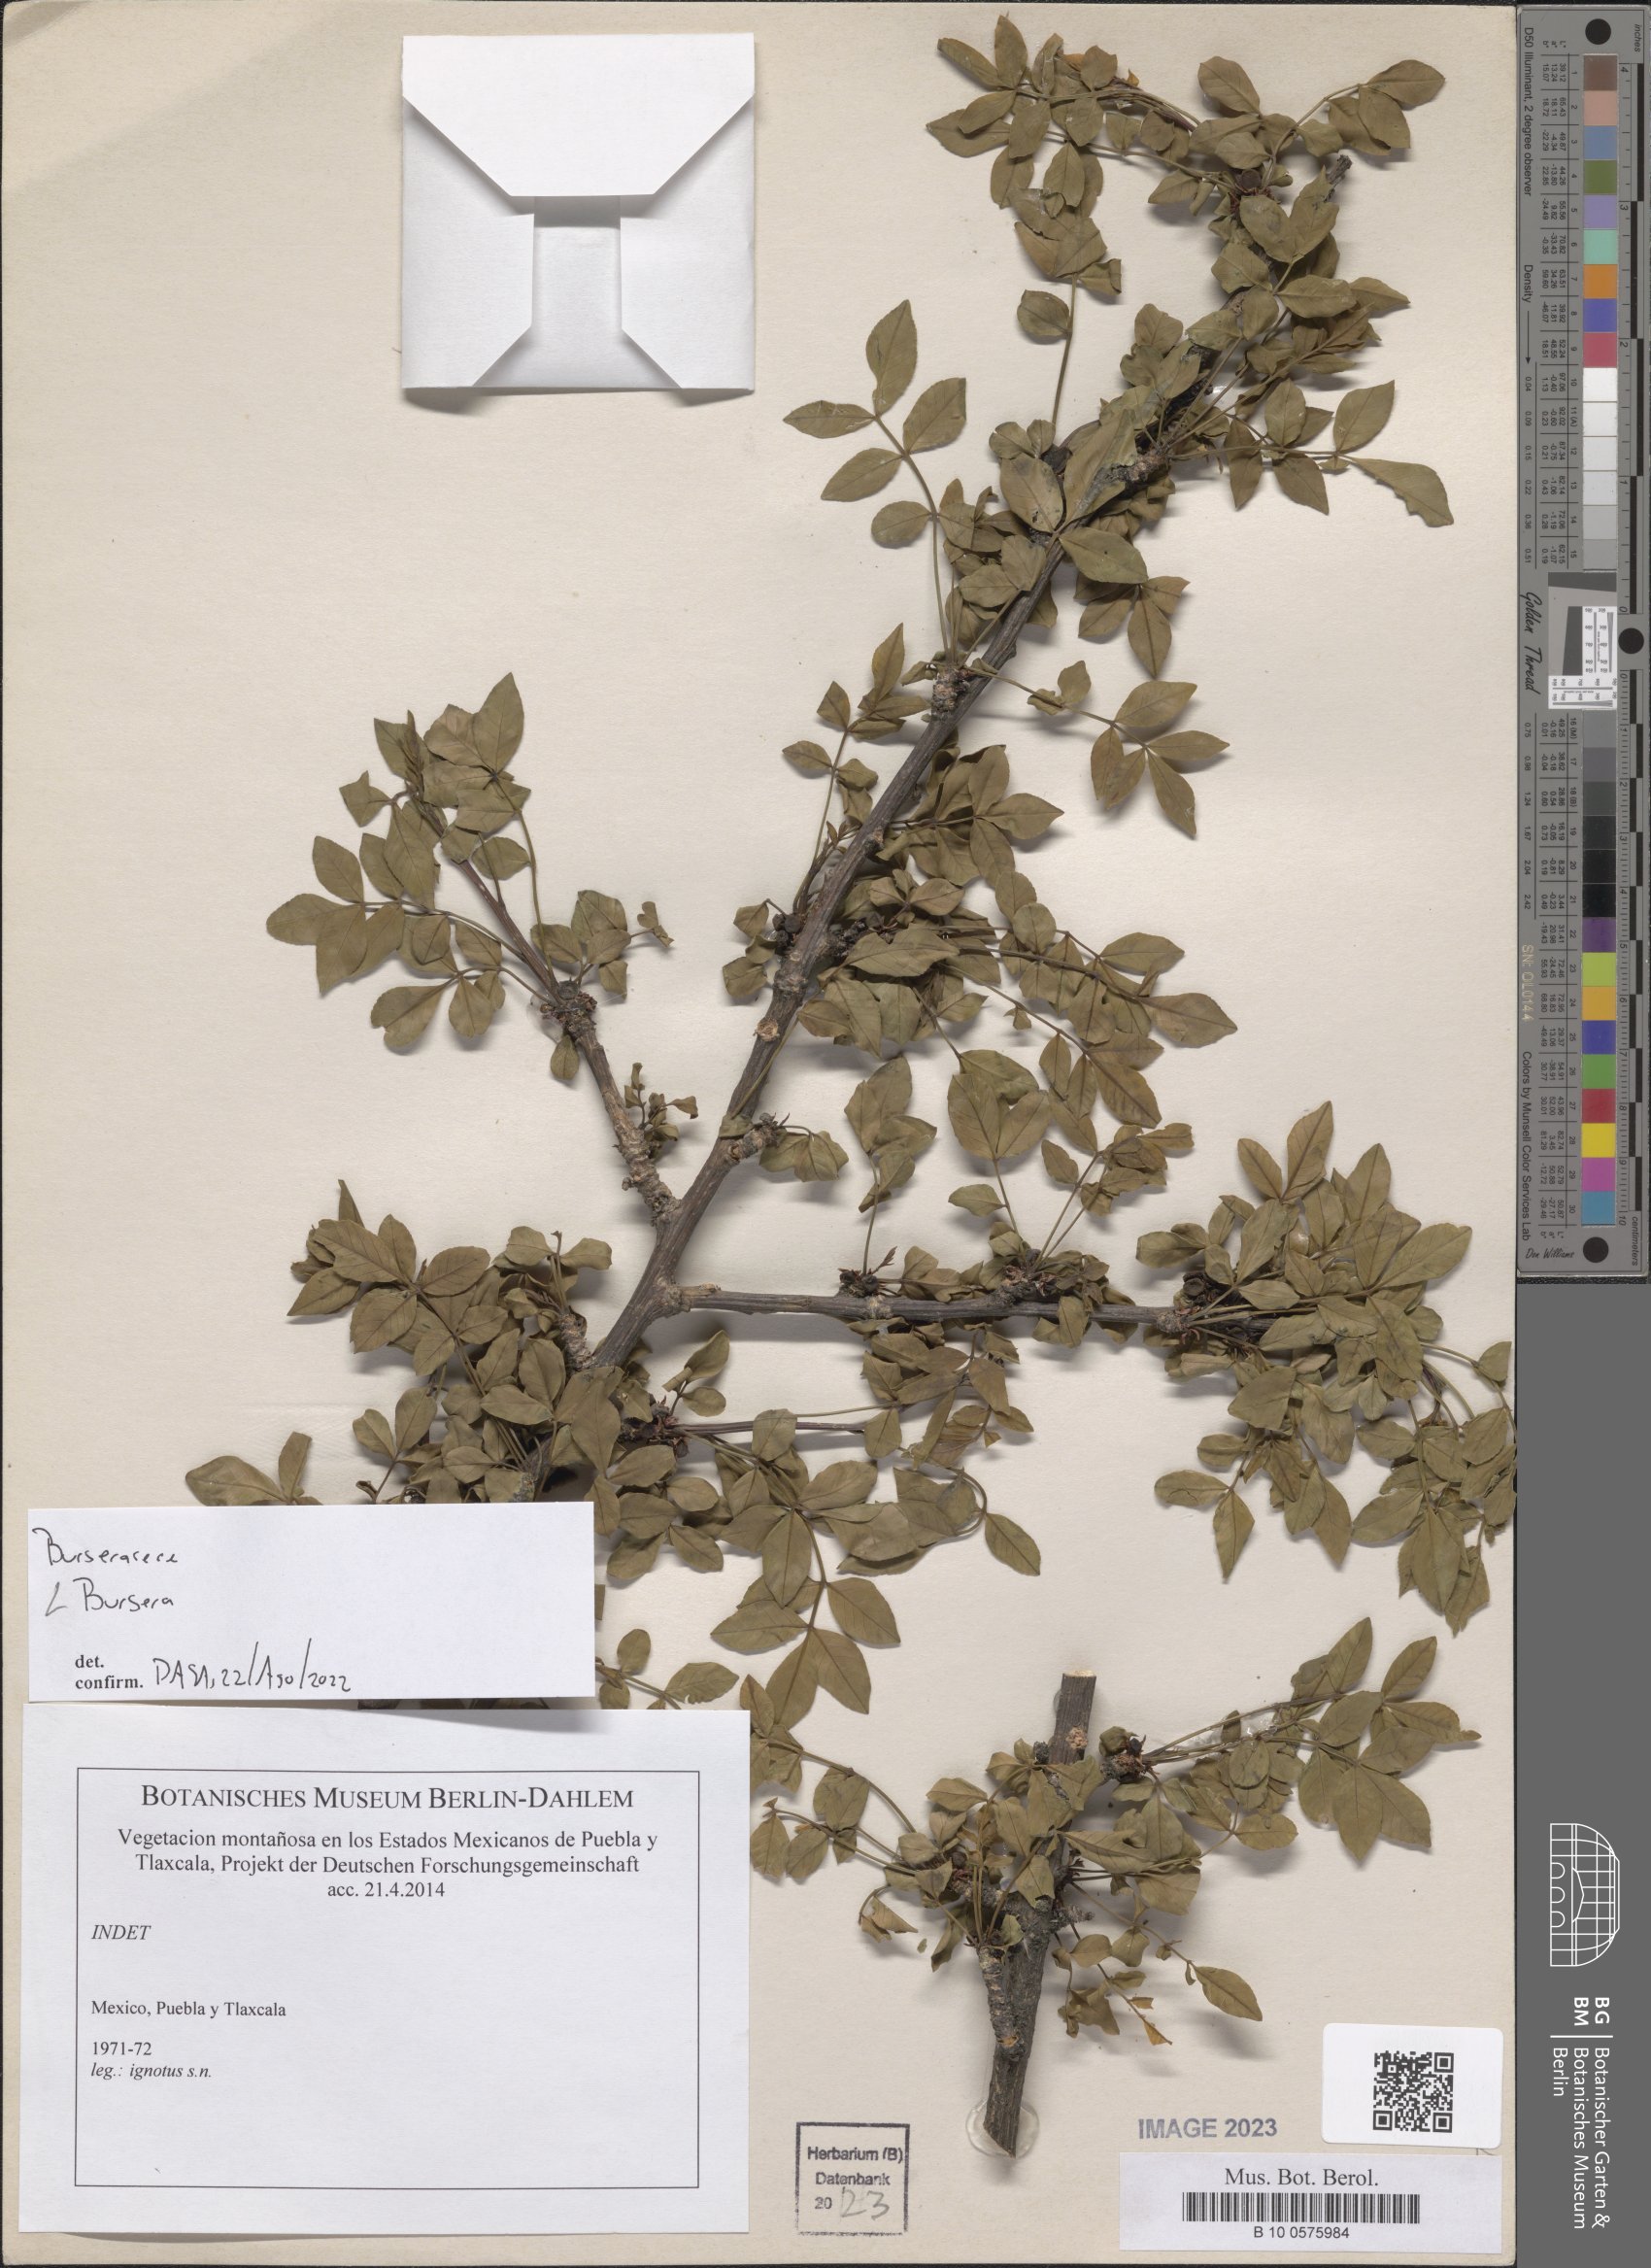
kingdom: Plantae
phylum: Tracheophyta
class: Magnoliopsida
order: Sapindales
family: Burseraceae
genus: Bursera
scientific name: Bursera
